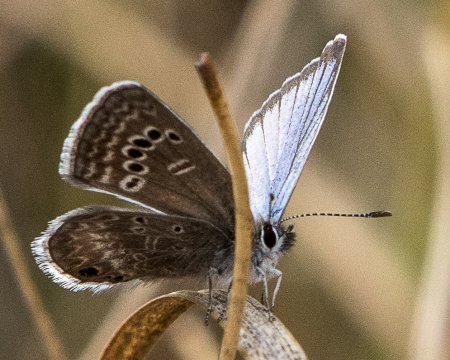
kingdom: Animalia
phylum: Arthropoda
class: Insecta
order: Lepidoptera
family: Lycaenidae
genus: Echinargus
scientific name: Echinargus isola
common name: Reakirt's Blue
